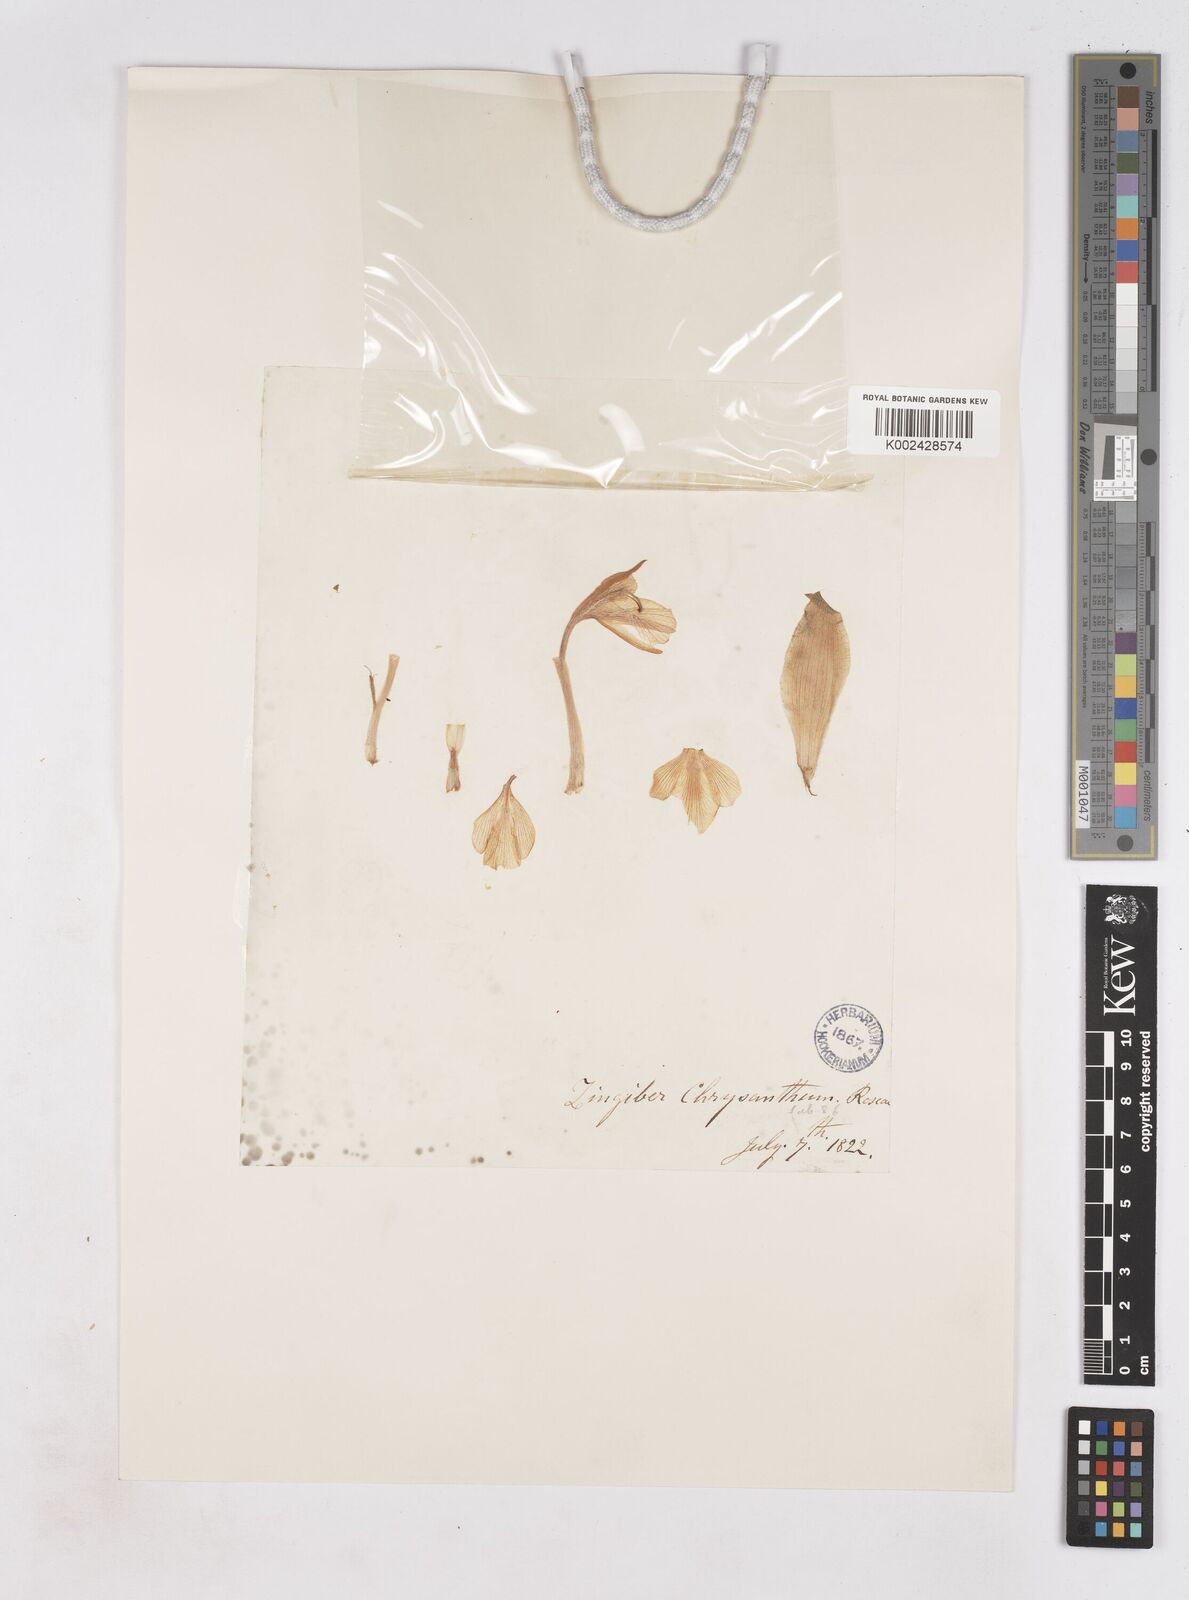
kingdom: Plantae
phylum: Tracheophyta
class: Liliopsida
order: Zingiberales
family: Zingiberaceae
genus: Zingiber
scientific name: Zingiber chrysanthum
